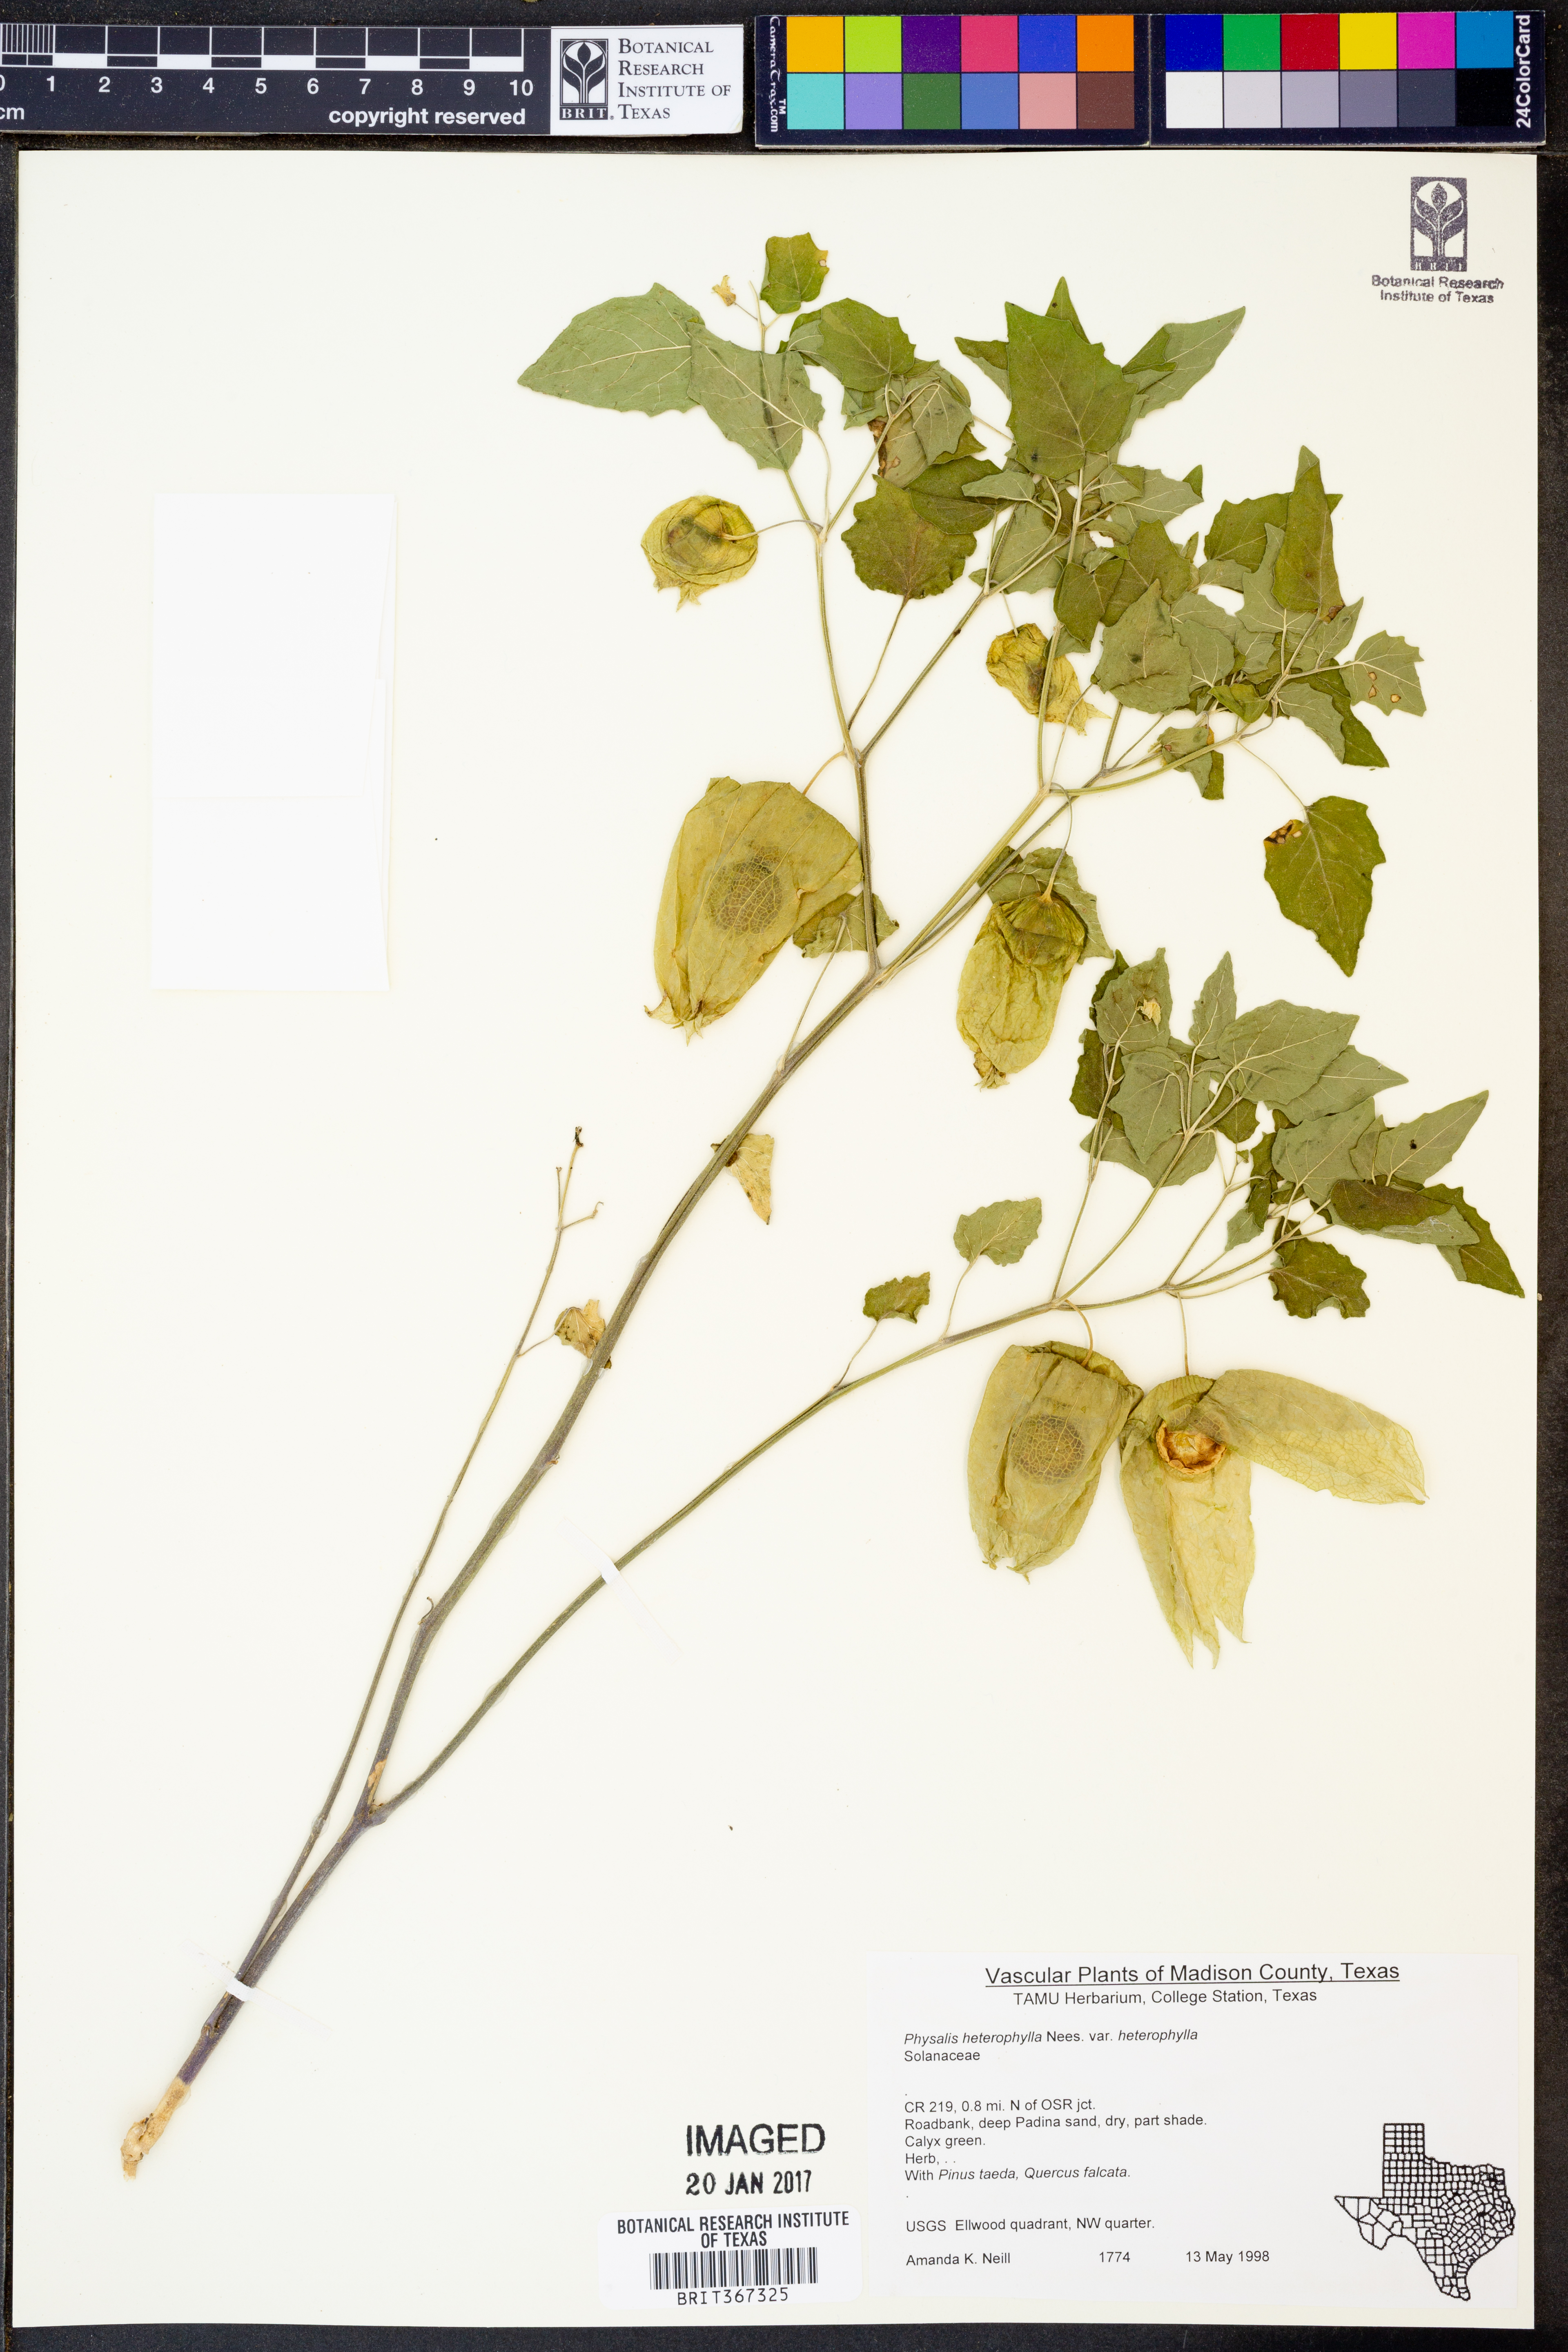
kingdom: Plantae
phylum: Tracheophyta
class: Magnoliopsida
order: Solanales
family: Solanaceae
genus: Physalis
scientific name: Physalis macrosperma
